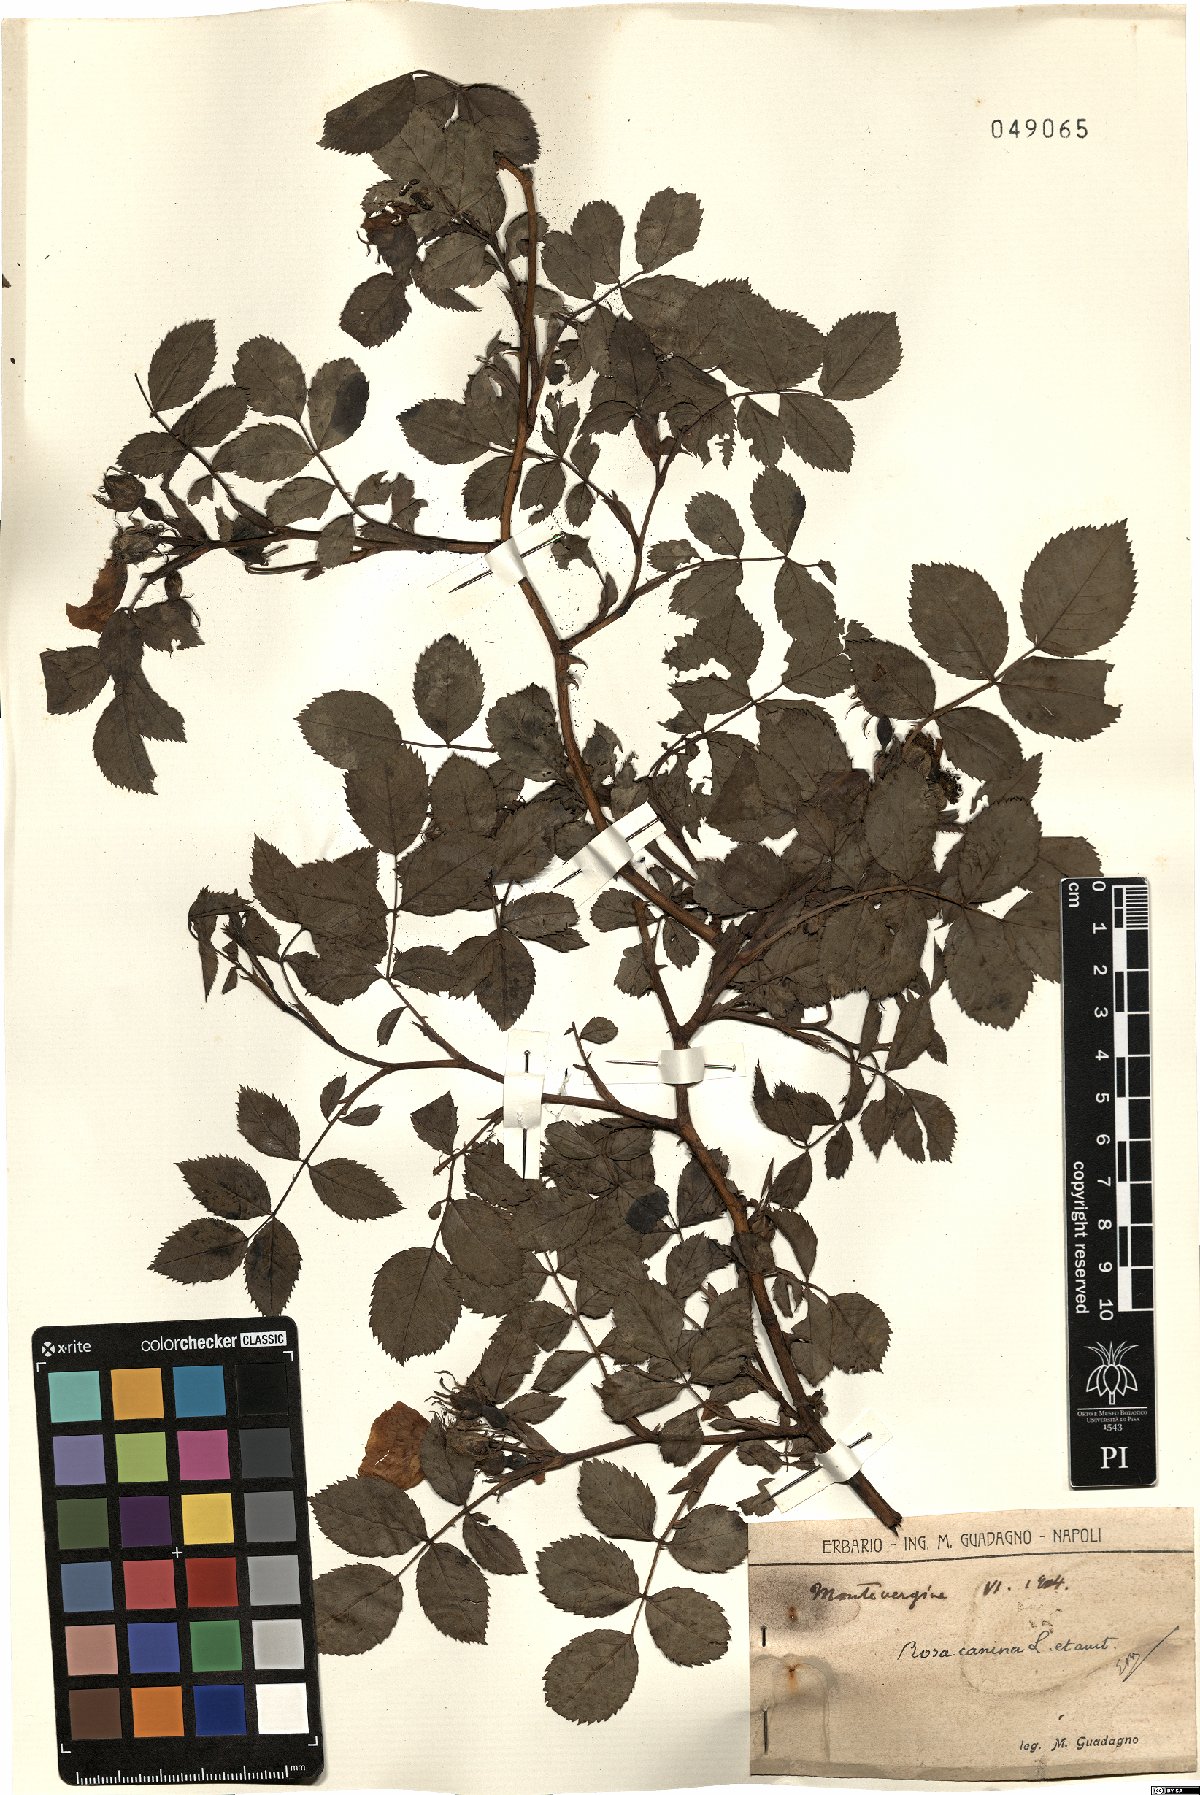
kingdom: Plantae
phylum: Tracheophyta
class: Magnoliopsida
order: Rosales
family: Rosaceae
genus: Rosa
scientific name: Rosa canina
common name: Dog rose
